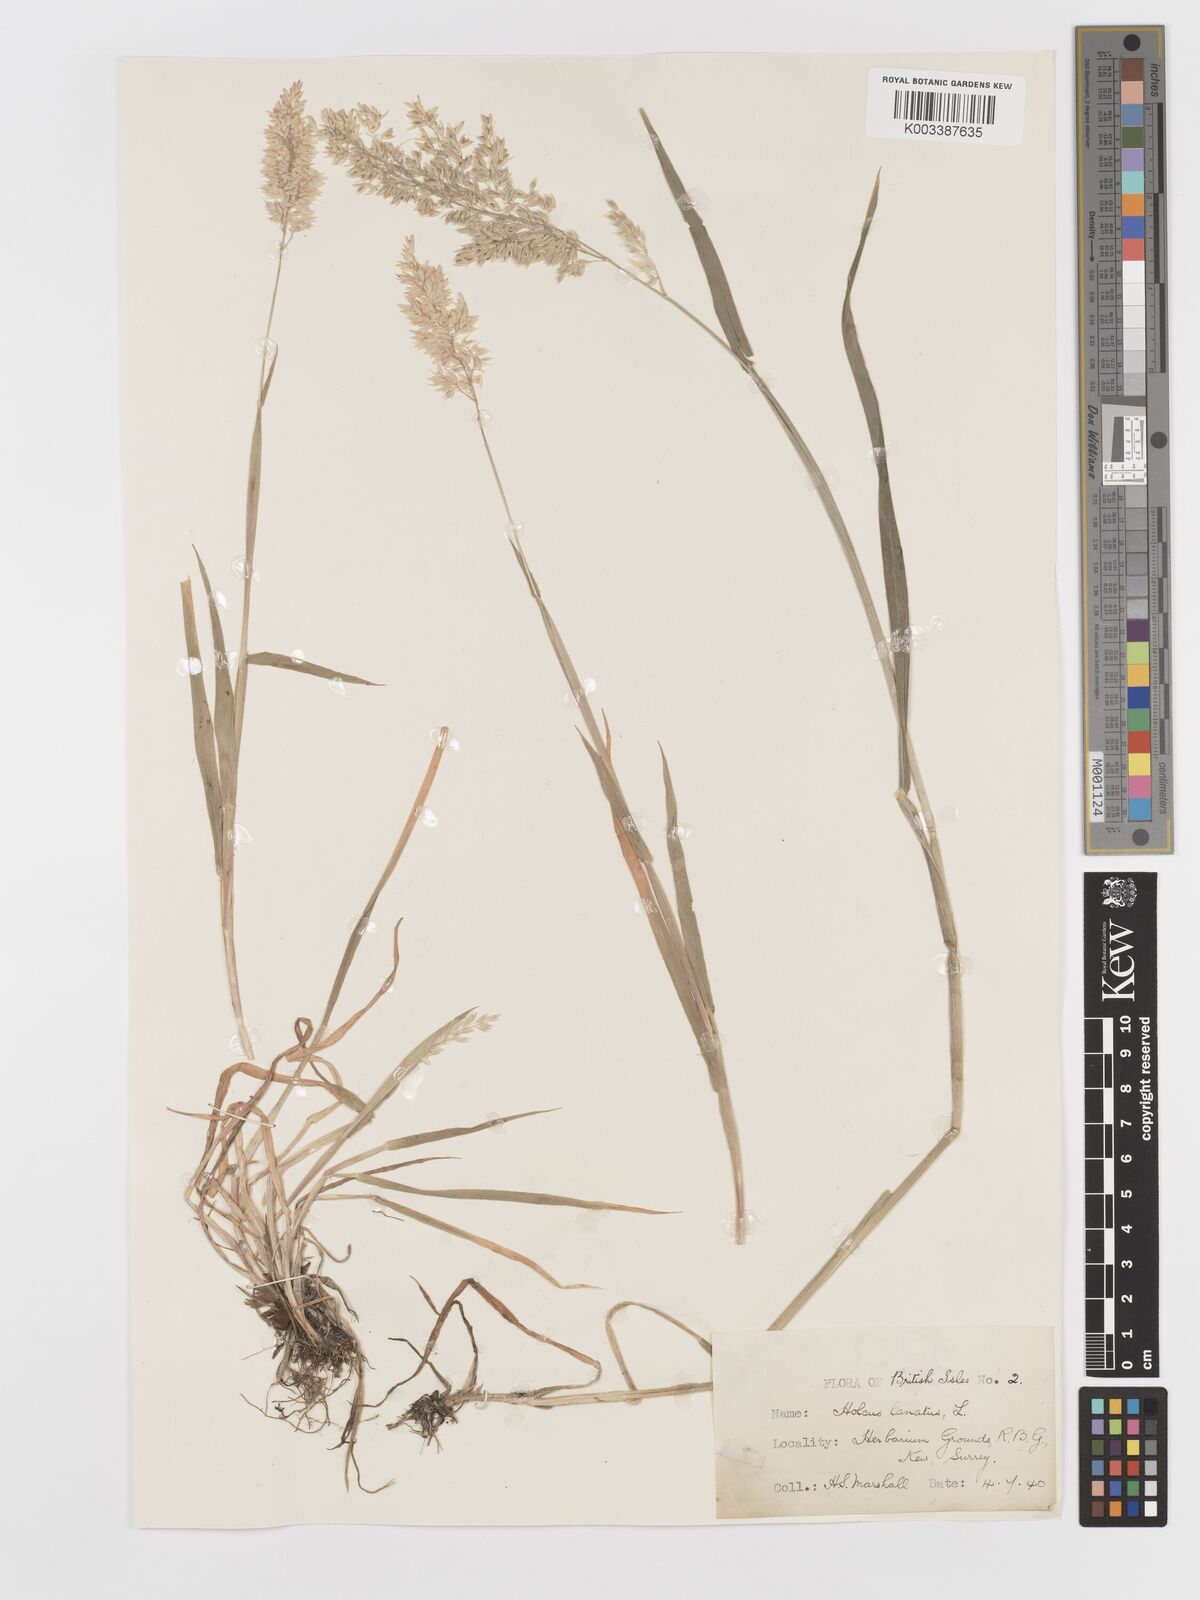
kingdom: Plantae
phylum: Tracheophyta
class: Liliopsida
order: Poales
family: Poaceae
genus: Holcus
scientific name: Holcus lanatus
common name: Yorkshire-fog
